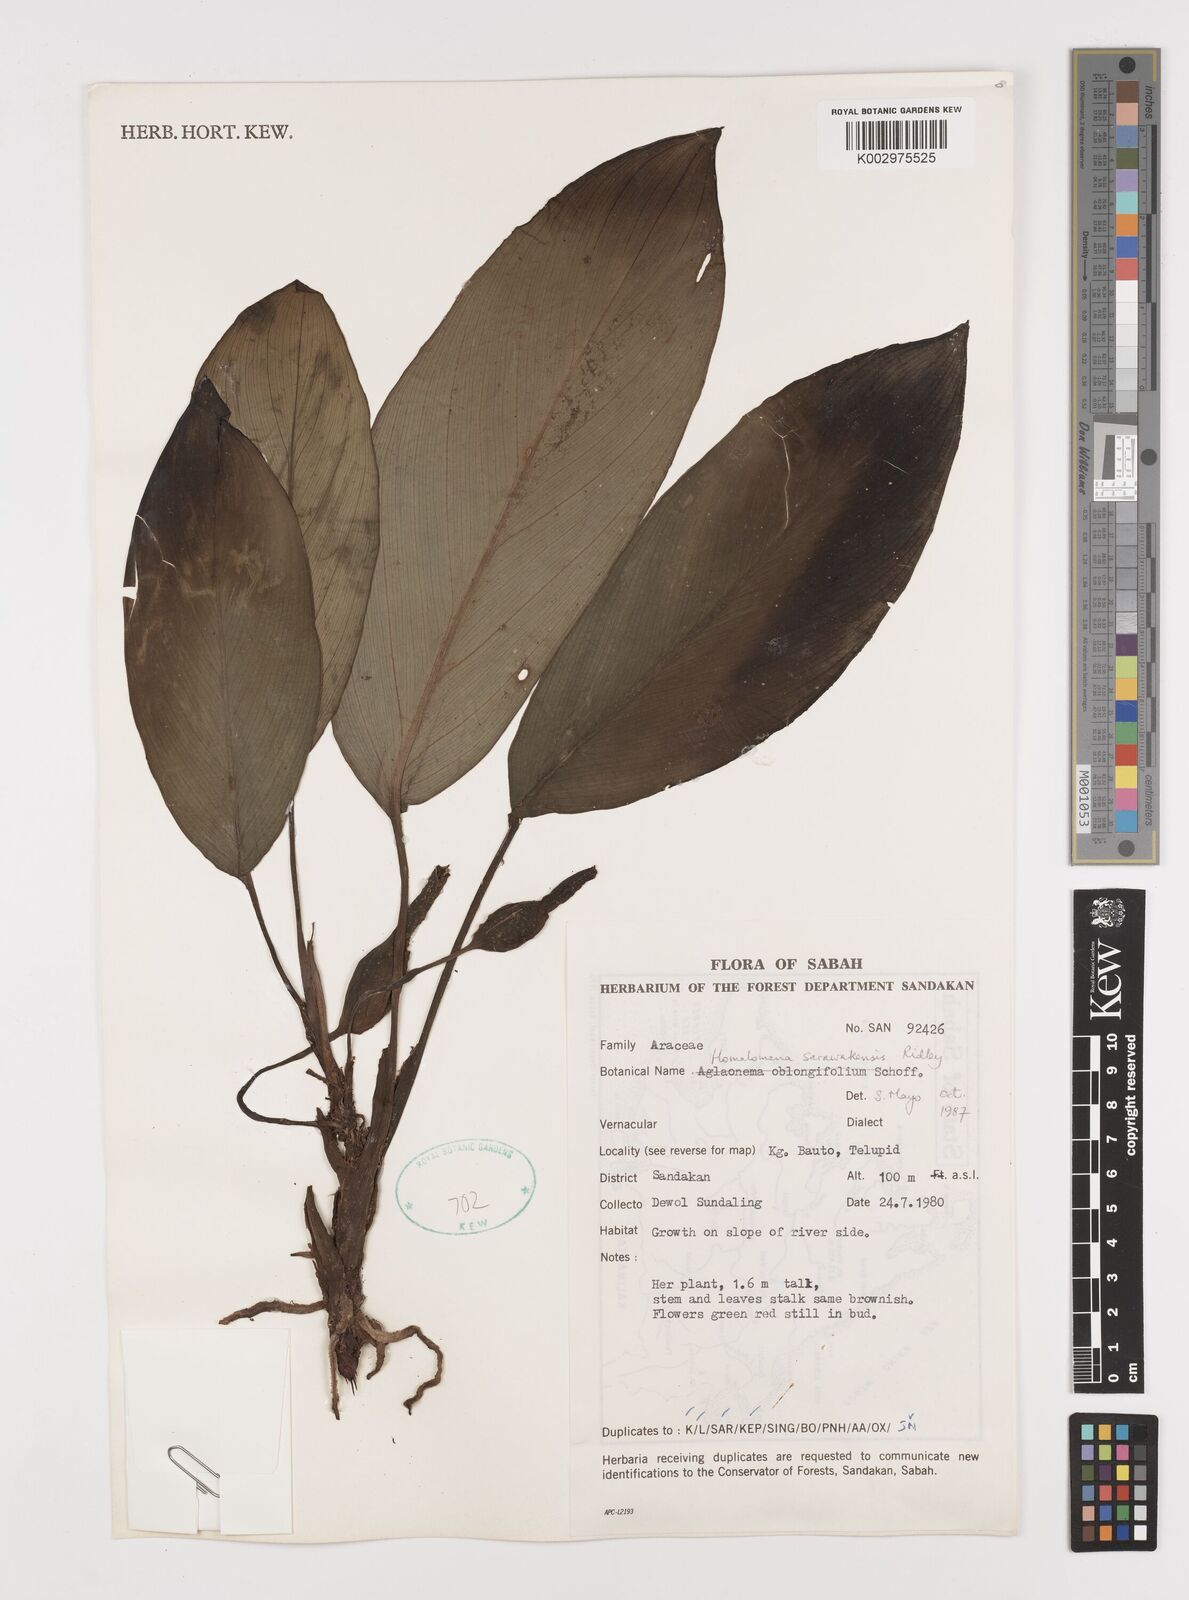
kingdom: Plantae
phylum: Tracheophyta
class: Liliopsida
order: Alismatales
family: Araceae
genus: Homalomena
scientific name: Homalomena sarawakensis
